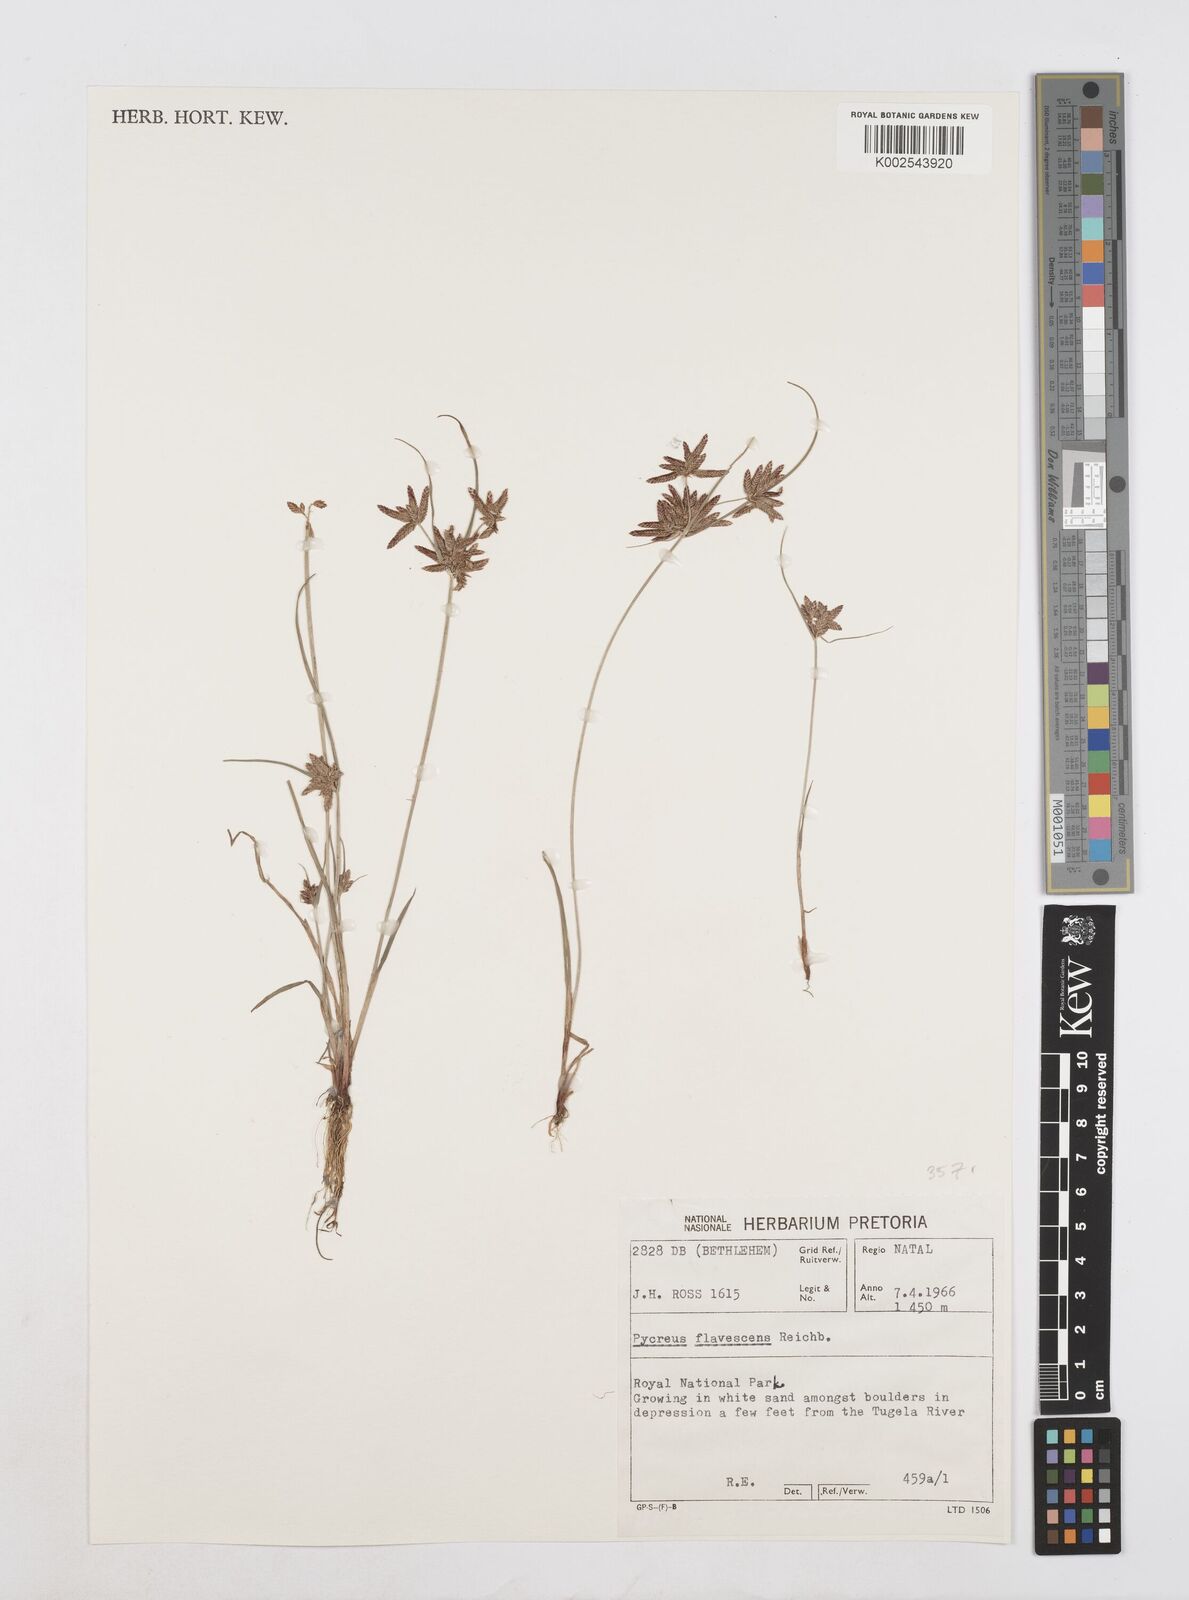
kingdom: Plantae
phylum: Tracheophyta
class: Liliopsida
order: Poales
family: Cyperaceae
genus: Cyperus
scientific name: Cyperus flavescens
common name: Yellow galingale
